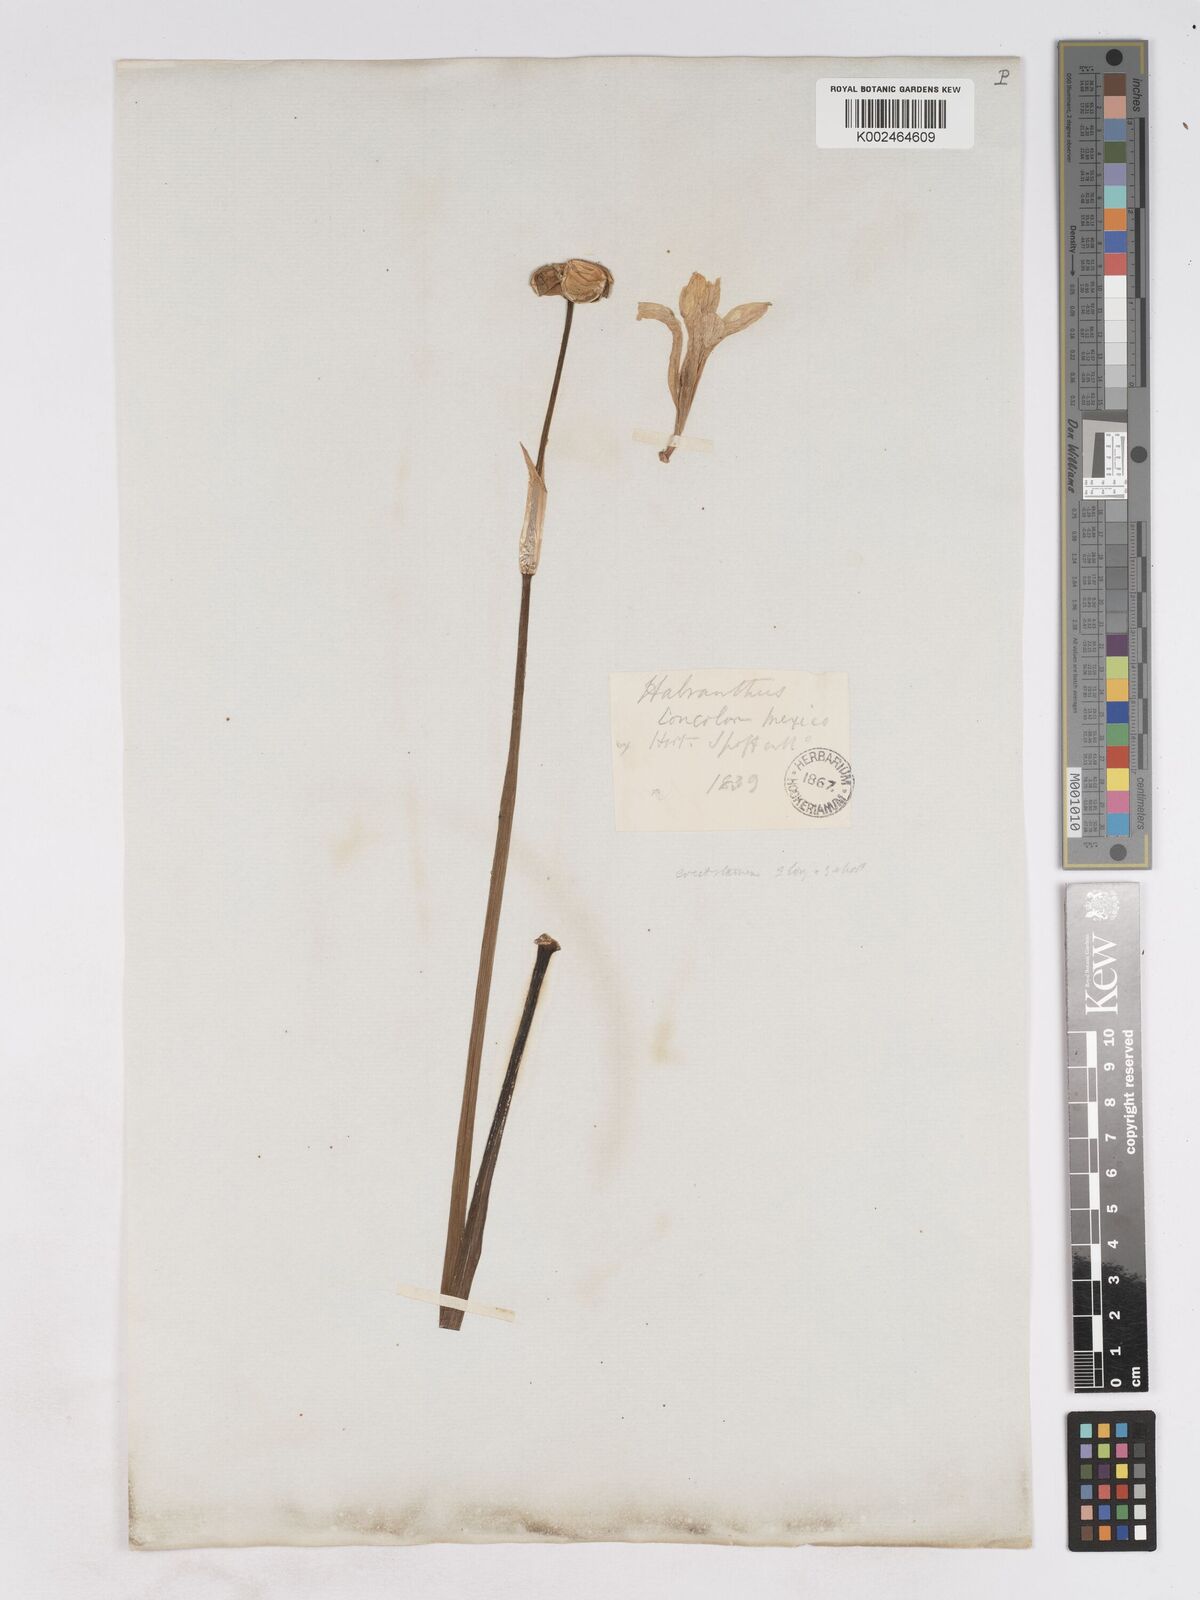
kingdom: Plantae
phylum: Tracheophyta
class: Liliopsida
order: Asparagales
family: Amaryllidaceae
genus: Zephyranthes
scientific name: Zephyranthes concolor
